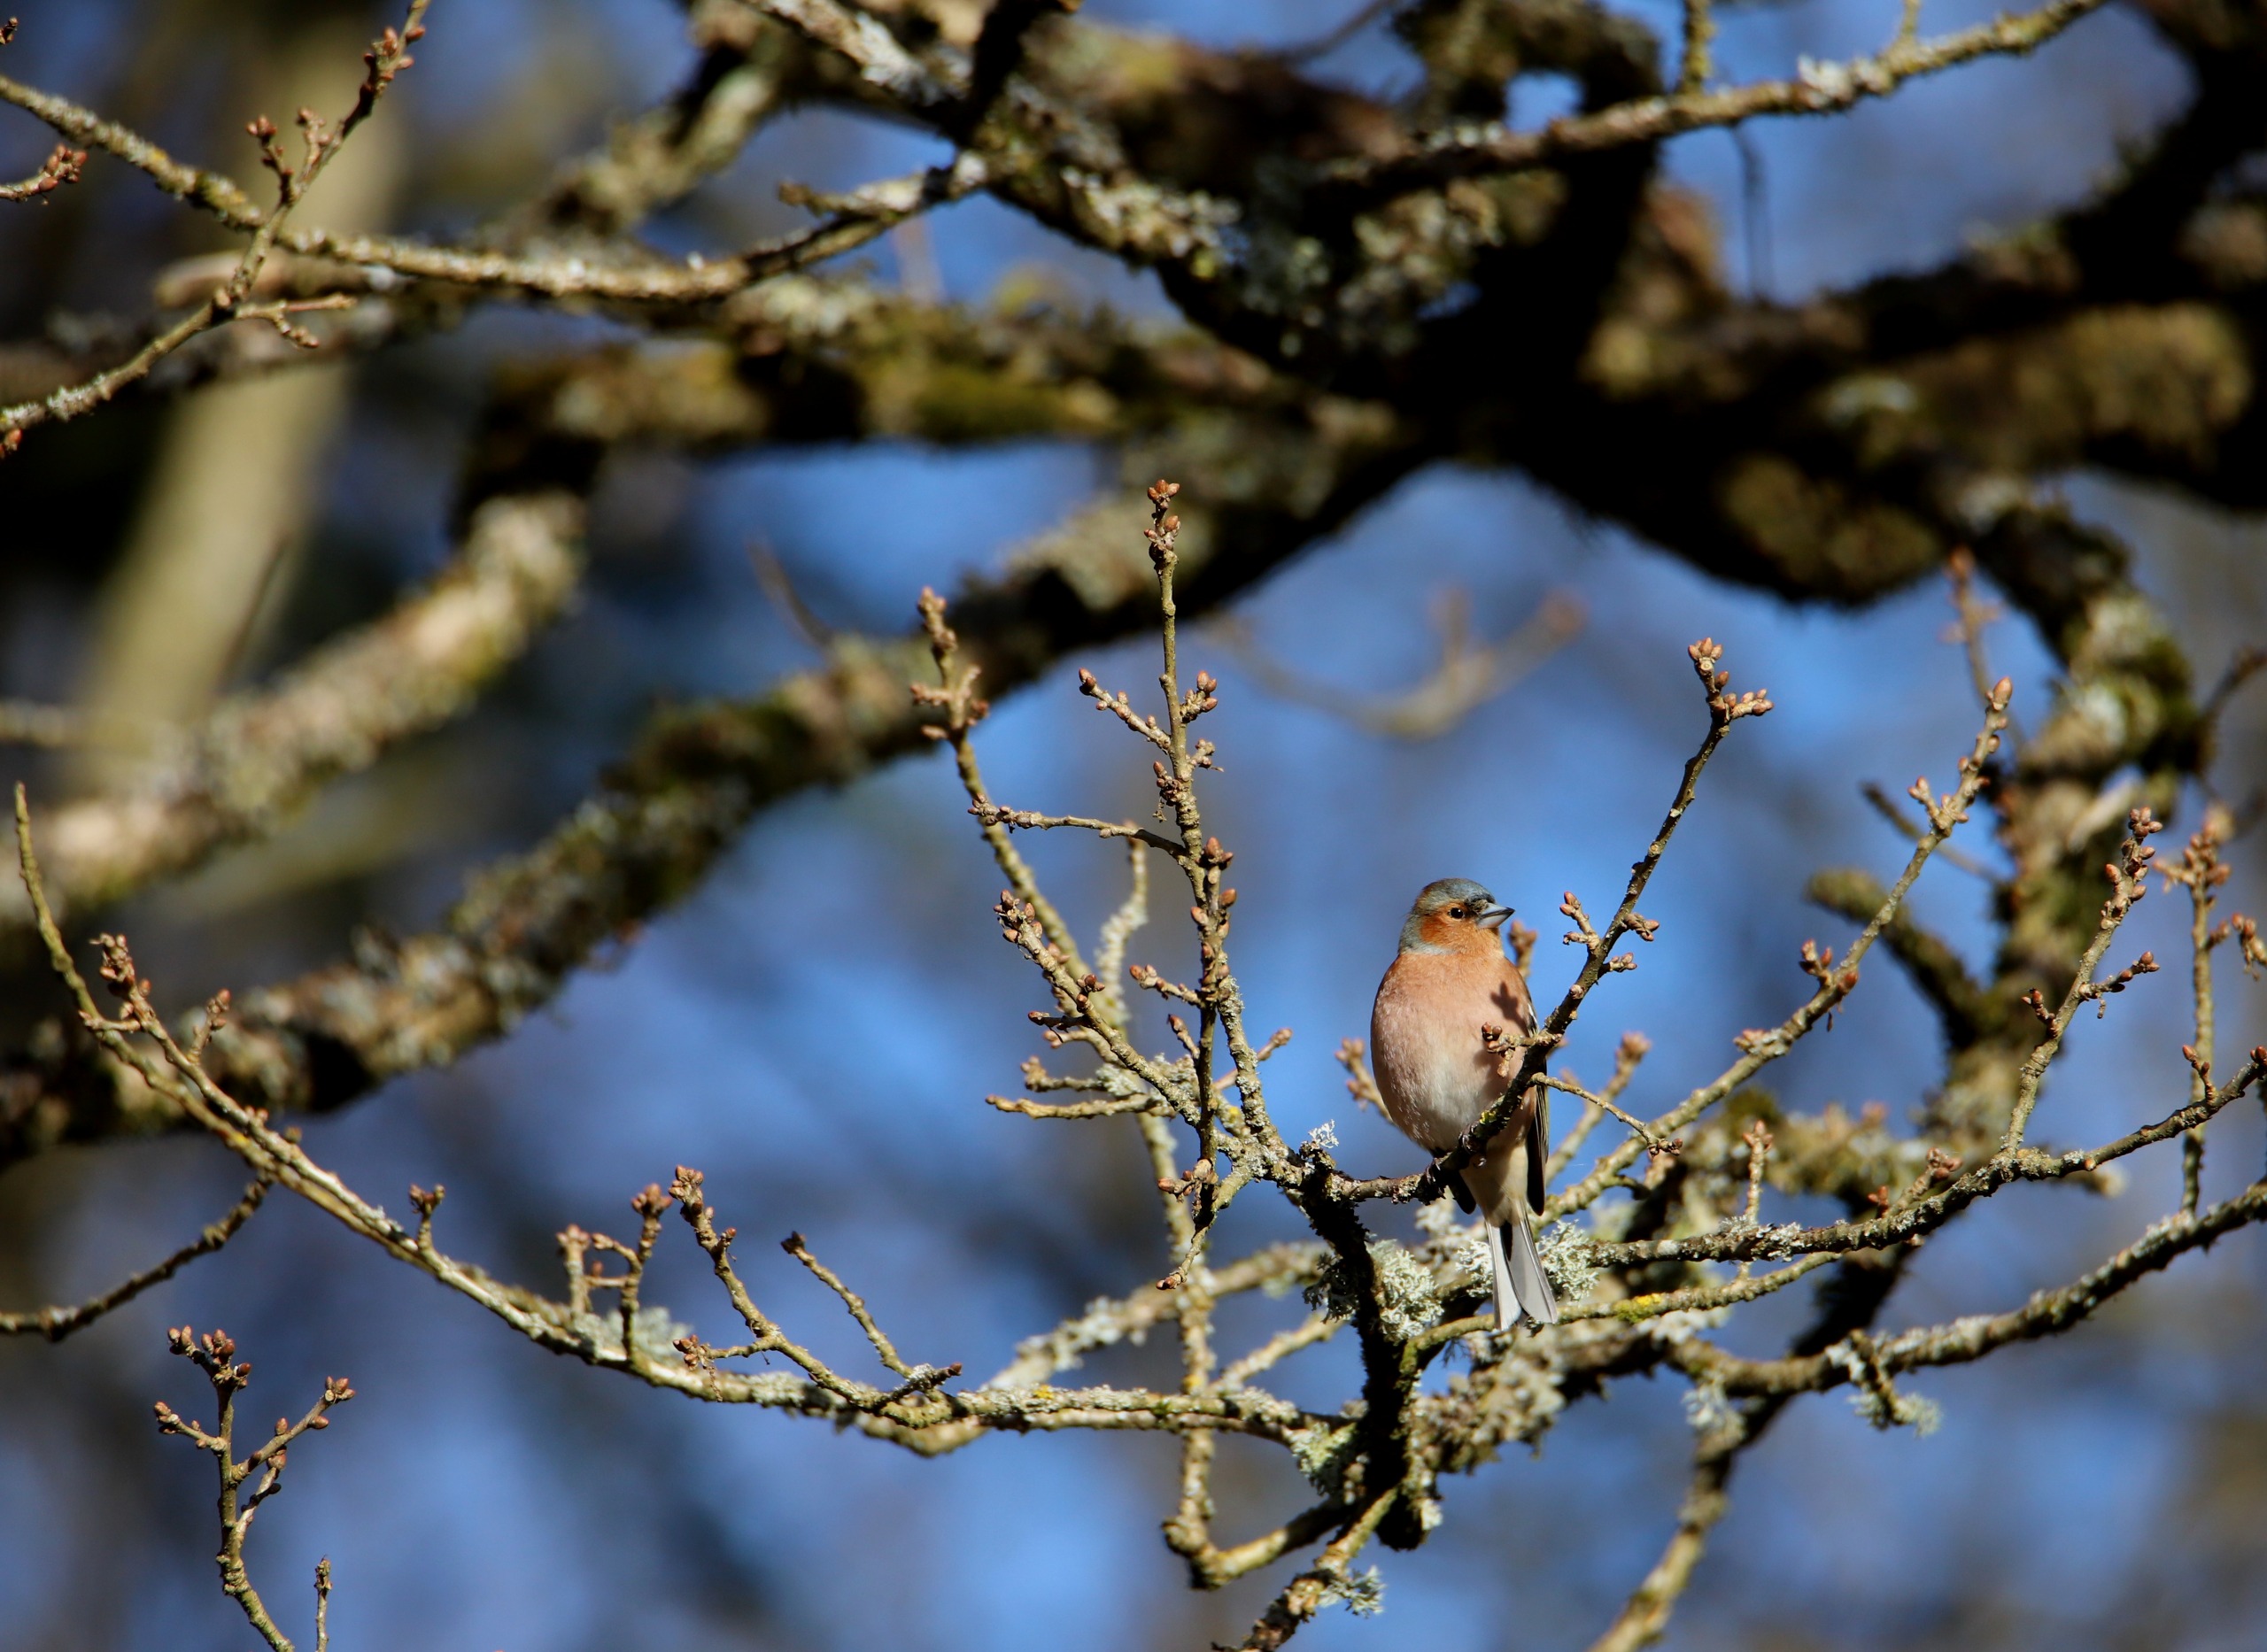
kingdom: Animalia
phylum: Chordata
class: Aves
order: Passeriformes
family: Fringillidae
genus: Fringilla
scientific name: Fringilla coelebs
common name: Bogfinke
